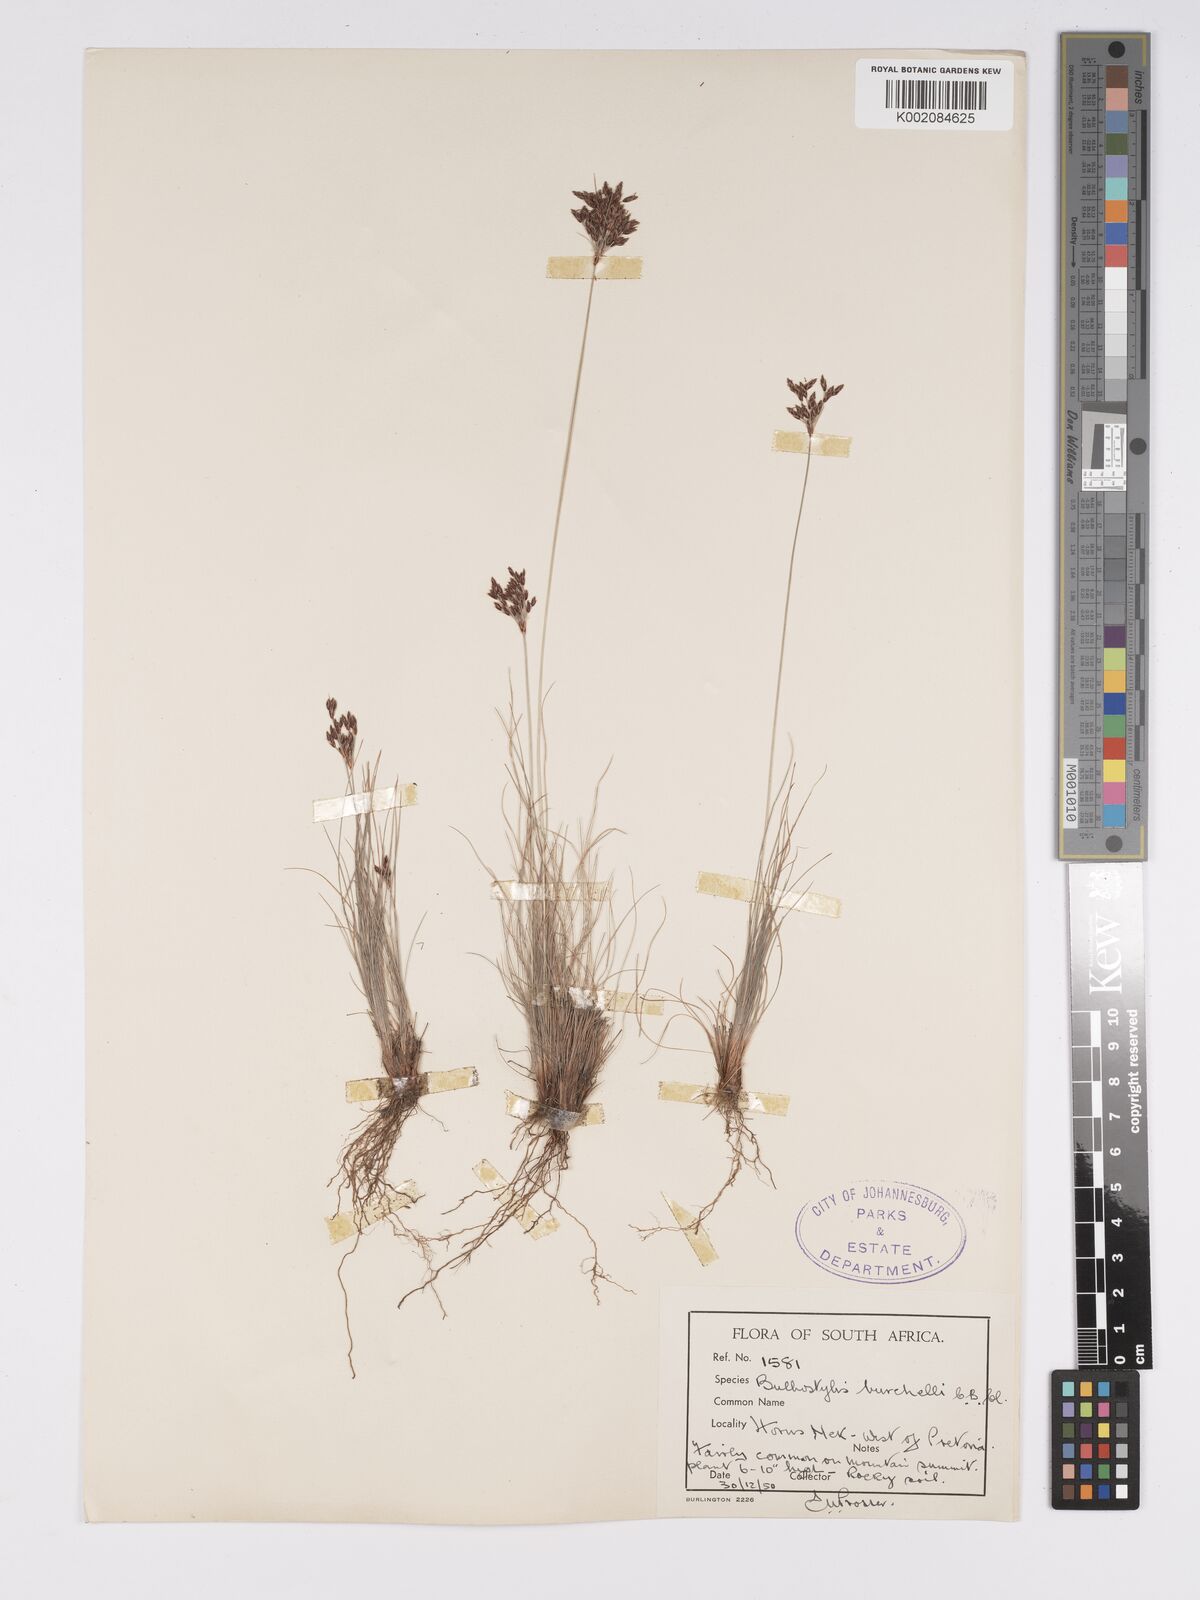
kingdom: Plantae
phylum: Tracheophyta
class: Liliopsida
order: Poales
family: Cyperaceae
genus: Bulbostylis
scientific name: Bulbostylis
